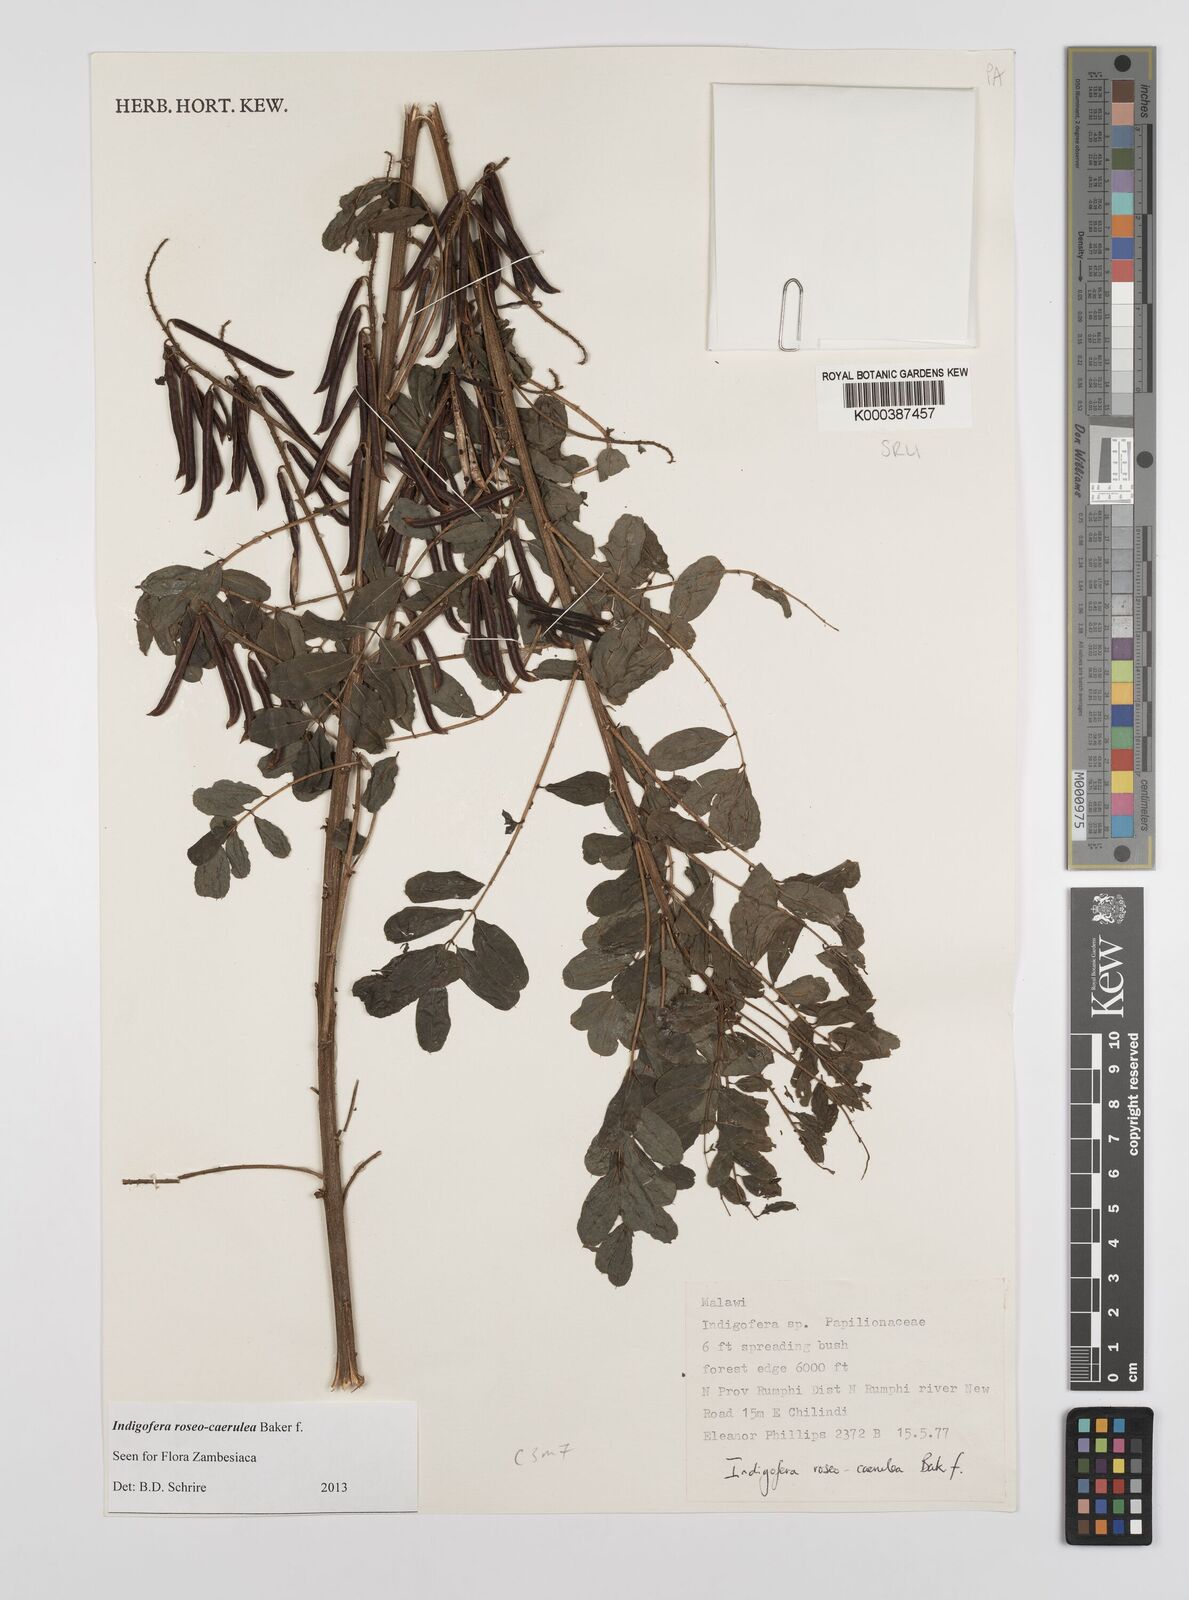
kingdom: Plantae
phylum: Tracheophyta
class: Magnoliopsida
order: Fabales
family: Fabaceae
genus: Indigofera
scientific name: Indigofera roseocaerulea
